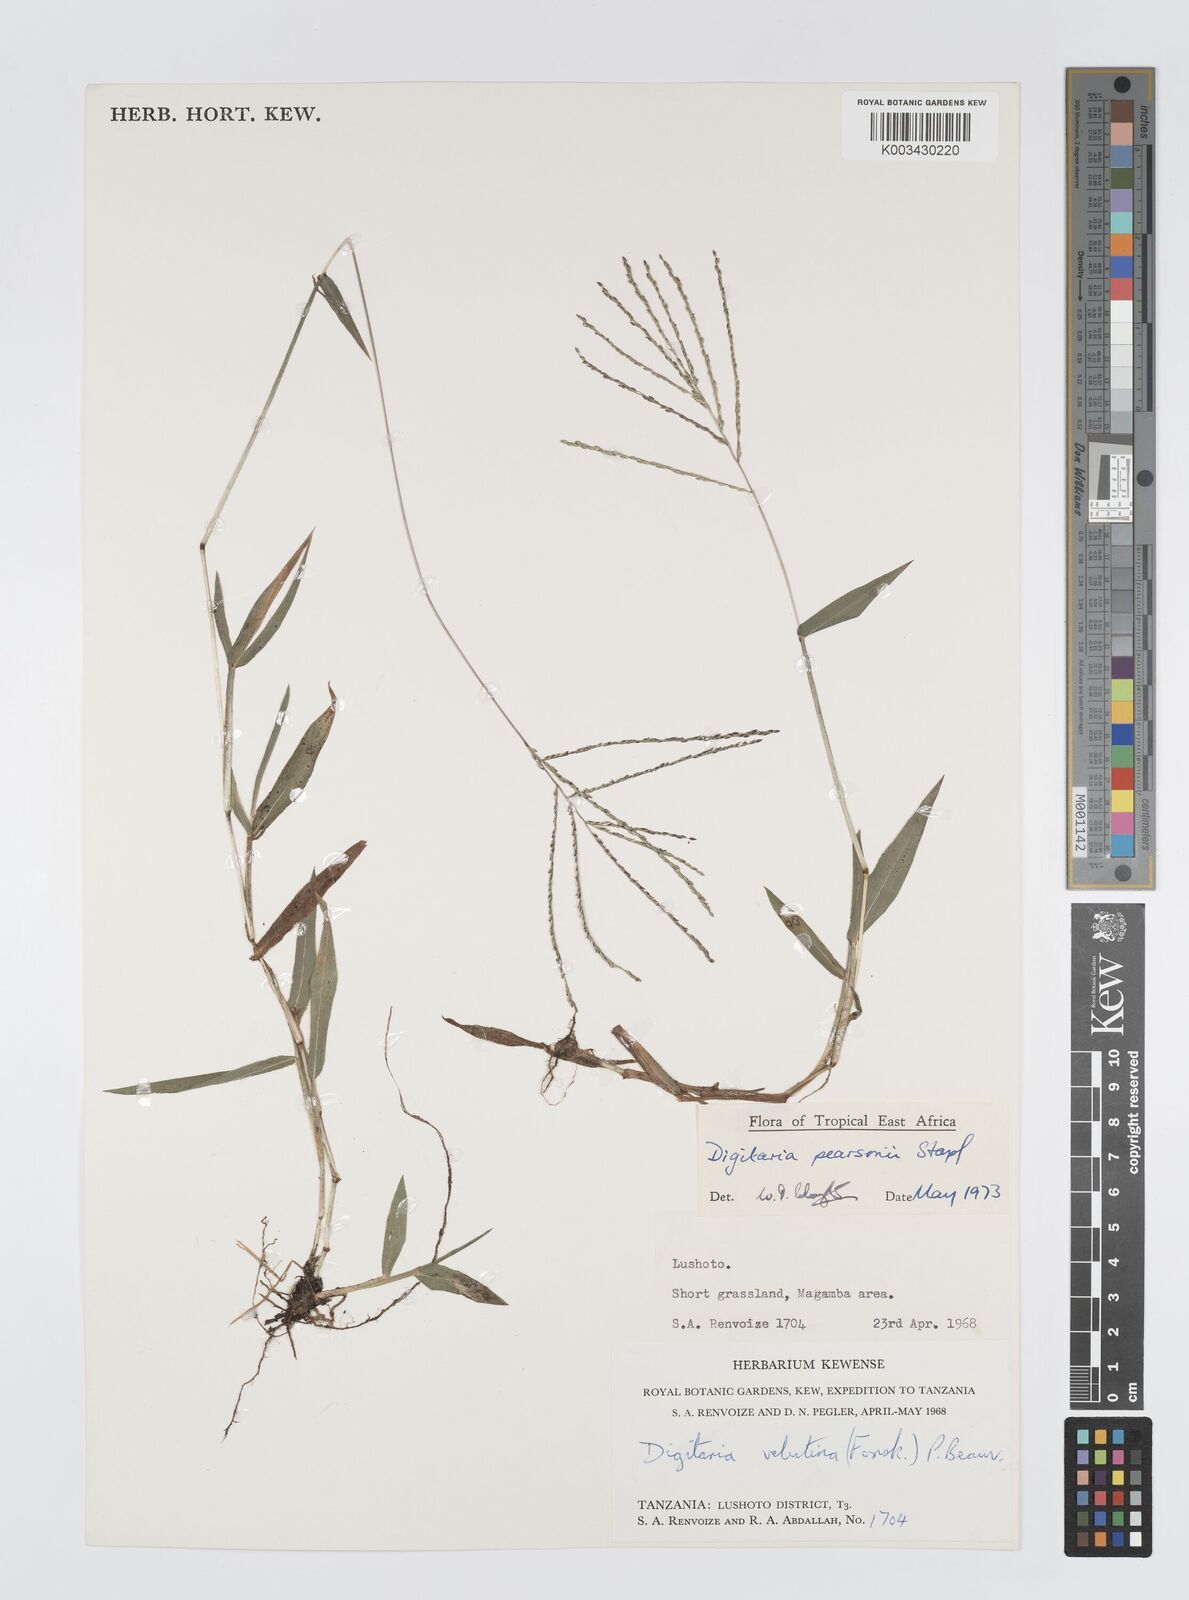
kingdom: Plantae
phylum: Tracheophyta
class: Liliopsida
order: Poales
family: Poaceae
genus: Digitaria
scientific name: Digitaria pearsonii
